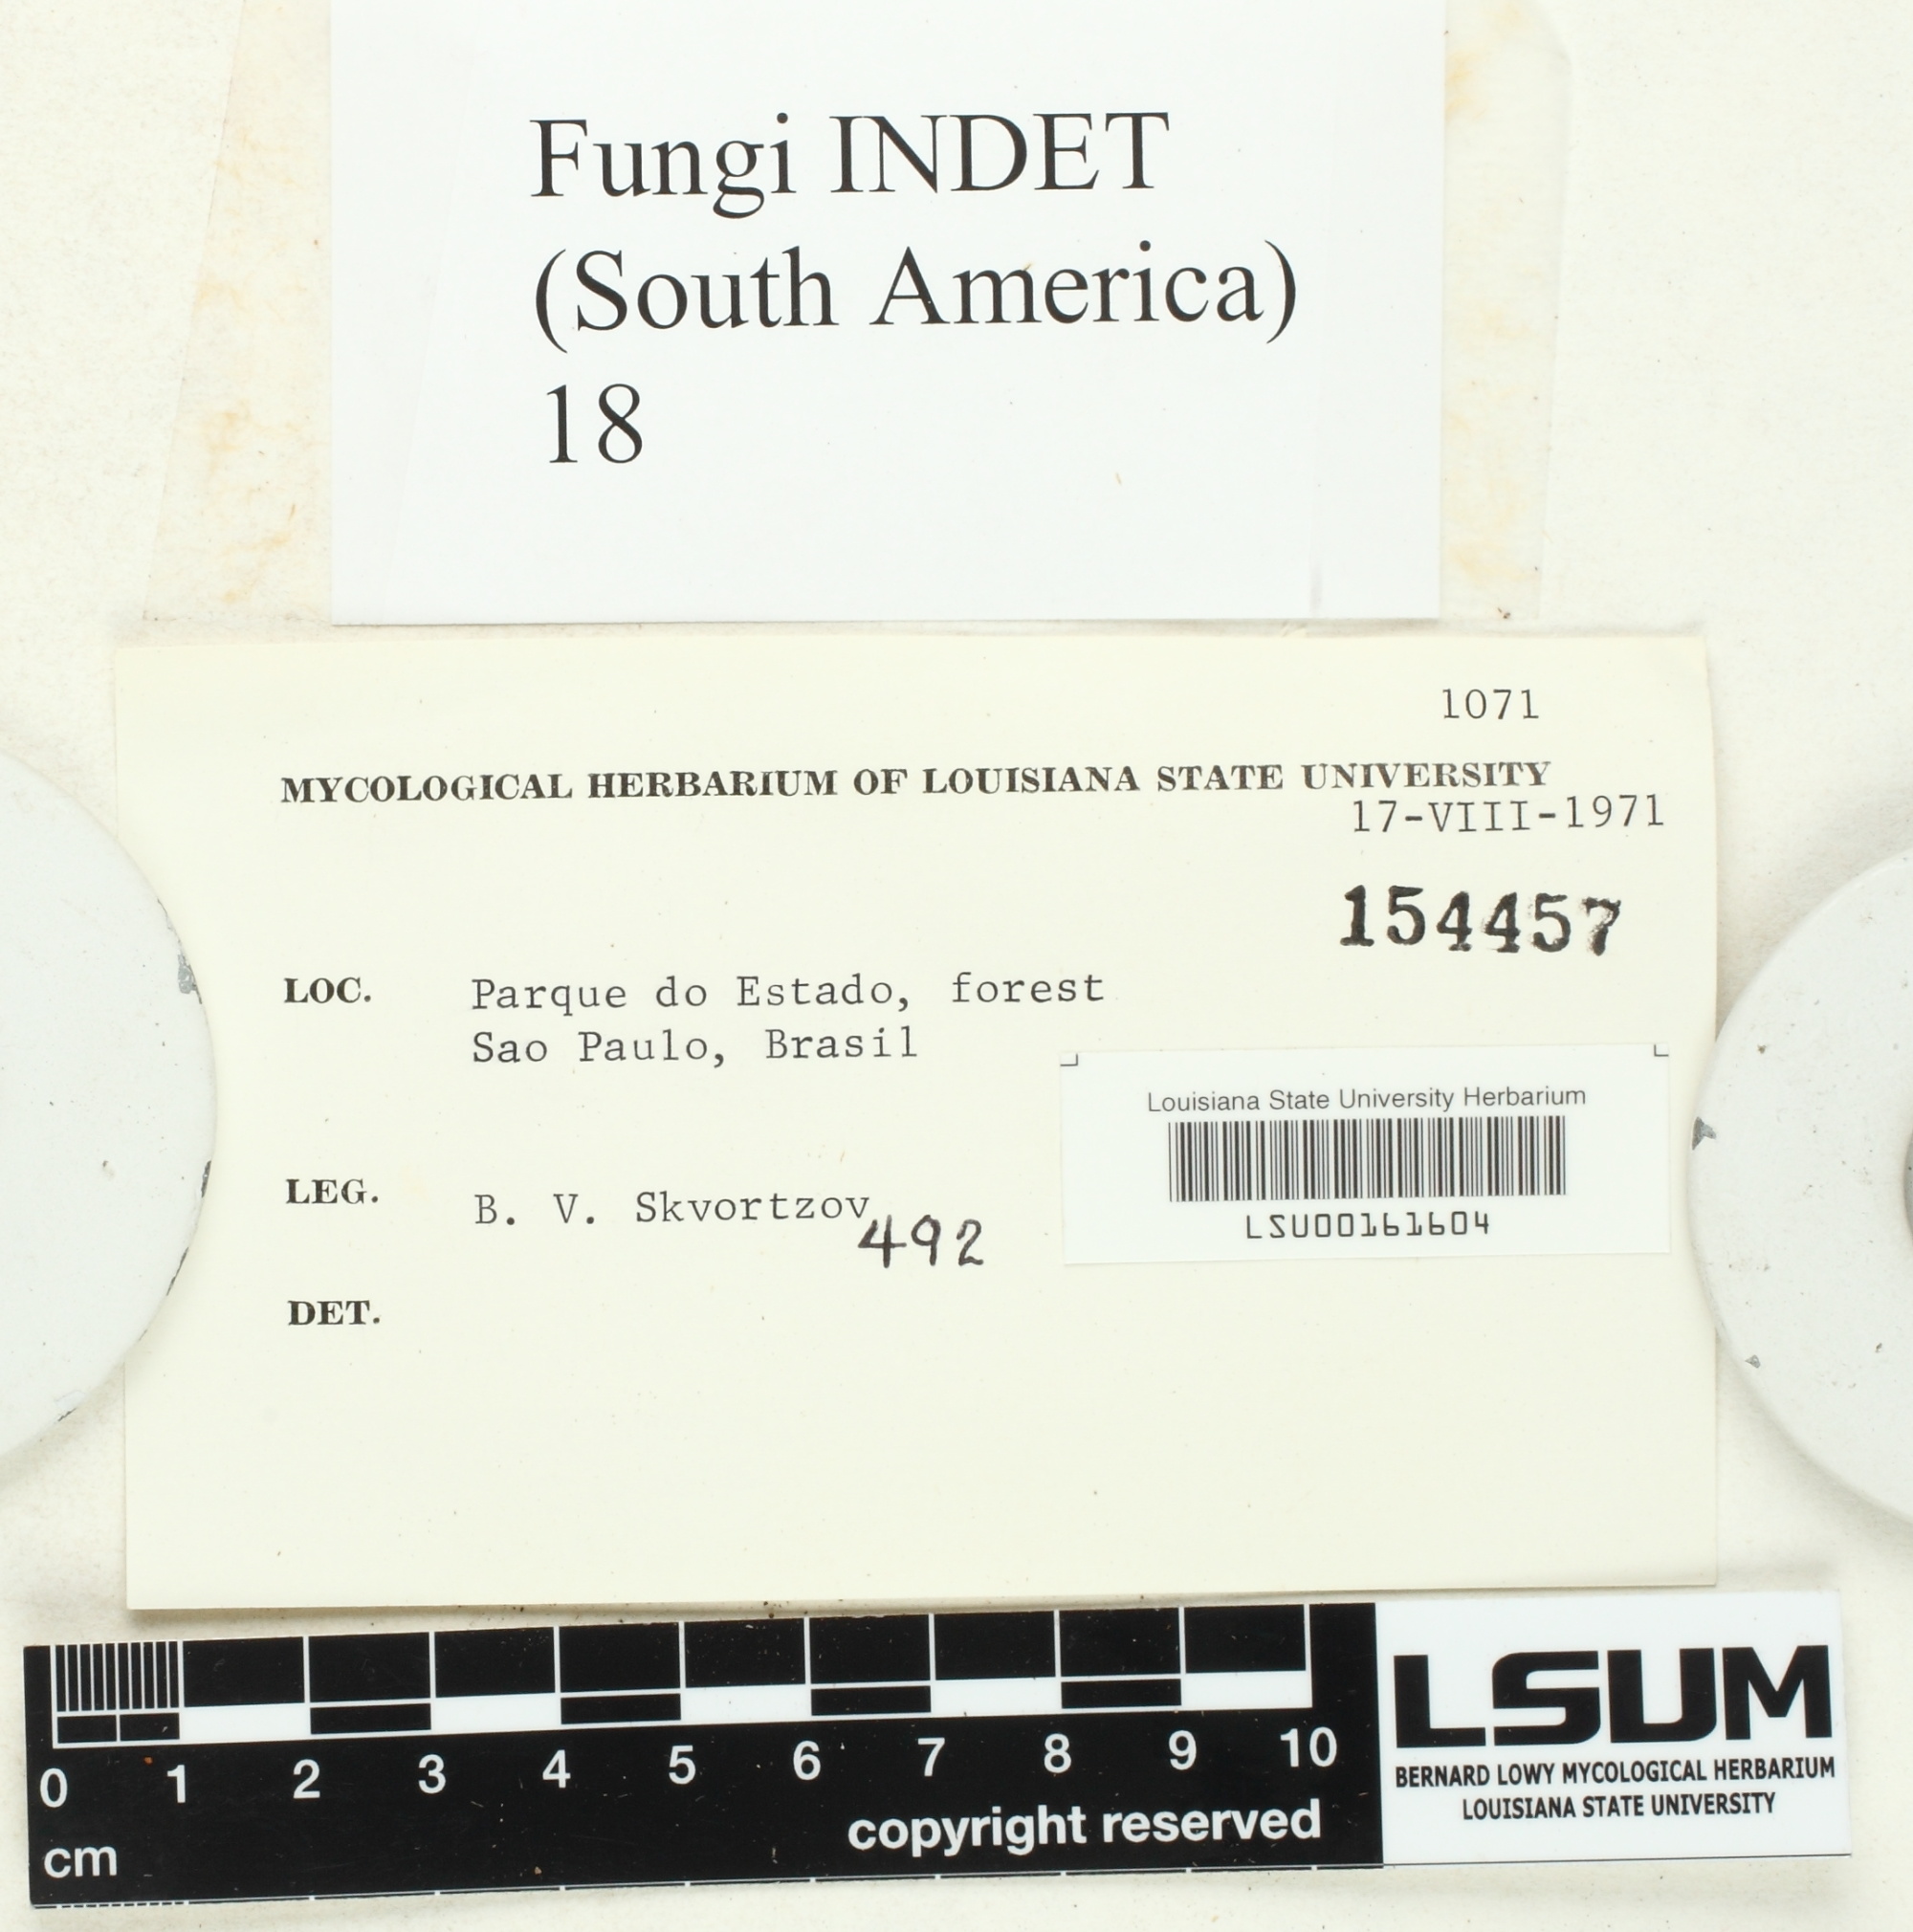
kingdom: Fungi
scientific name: Fungi
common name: Fungi
